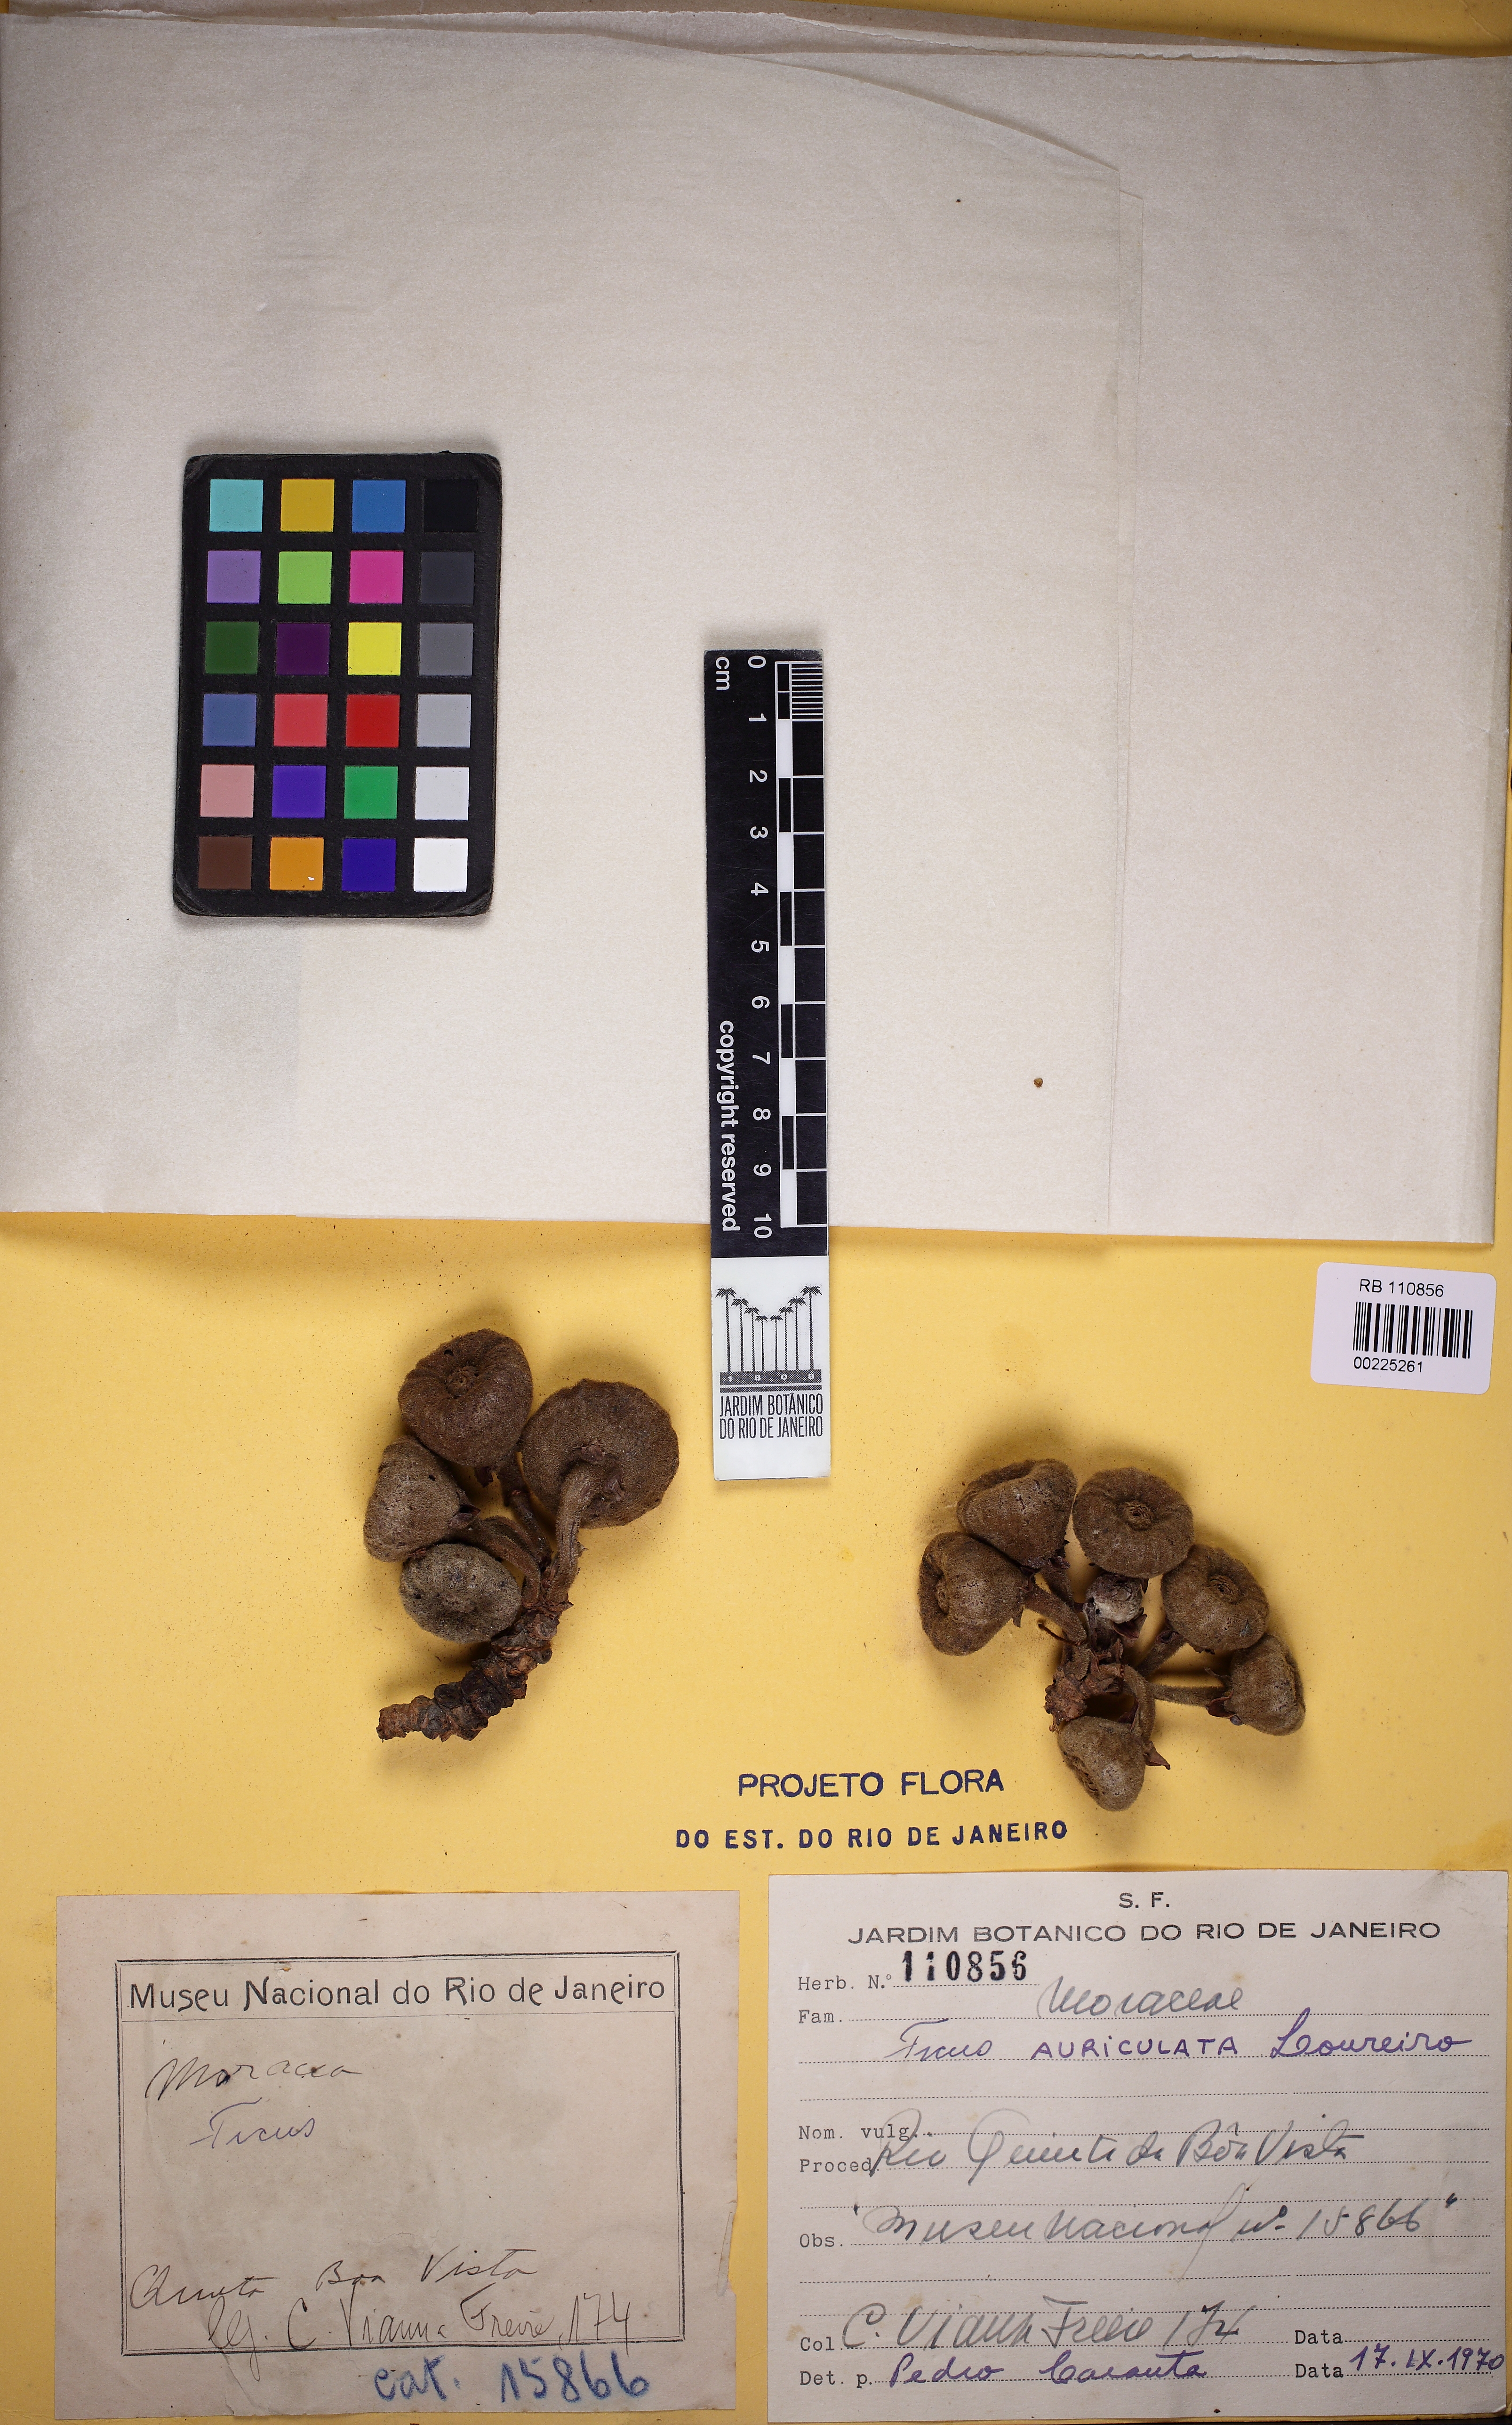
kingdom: Plantae
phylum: Tracheophyta
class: Magnoliopsida
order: Rosales
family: Moraceae
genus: Ficus
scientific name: Ficus auriculata
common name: Roxburgh fig
